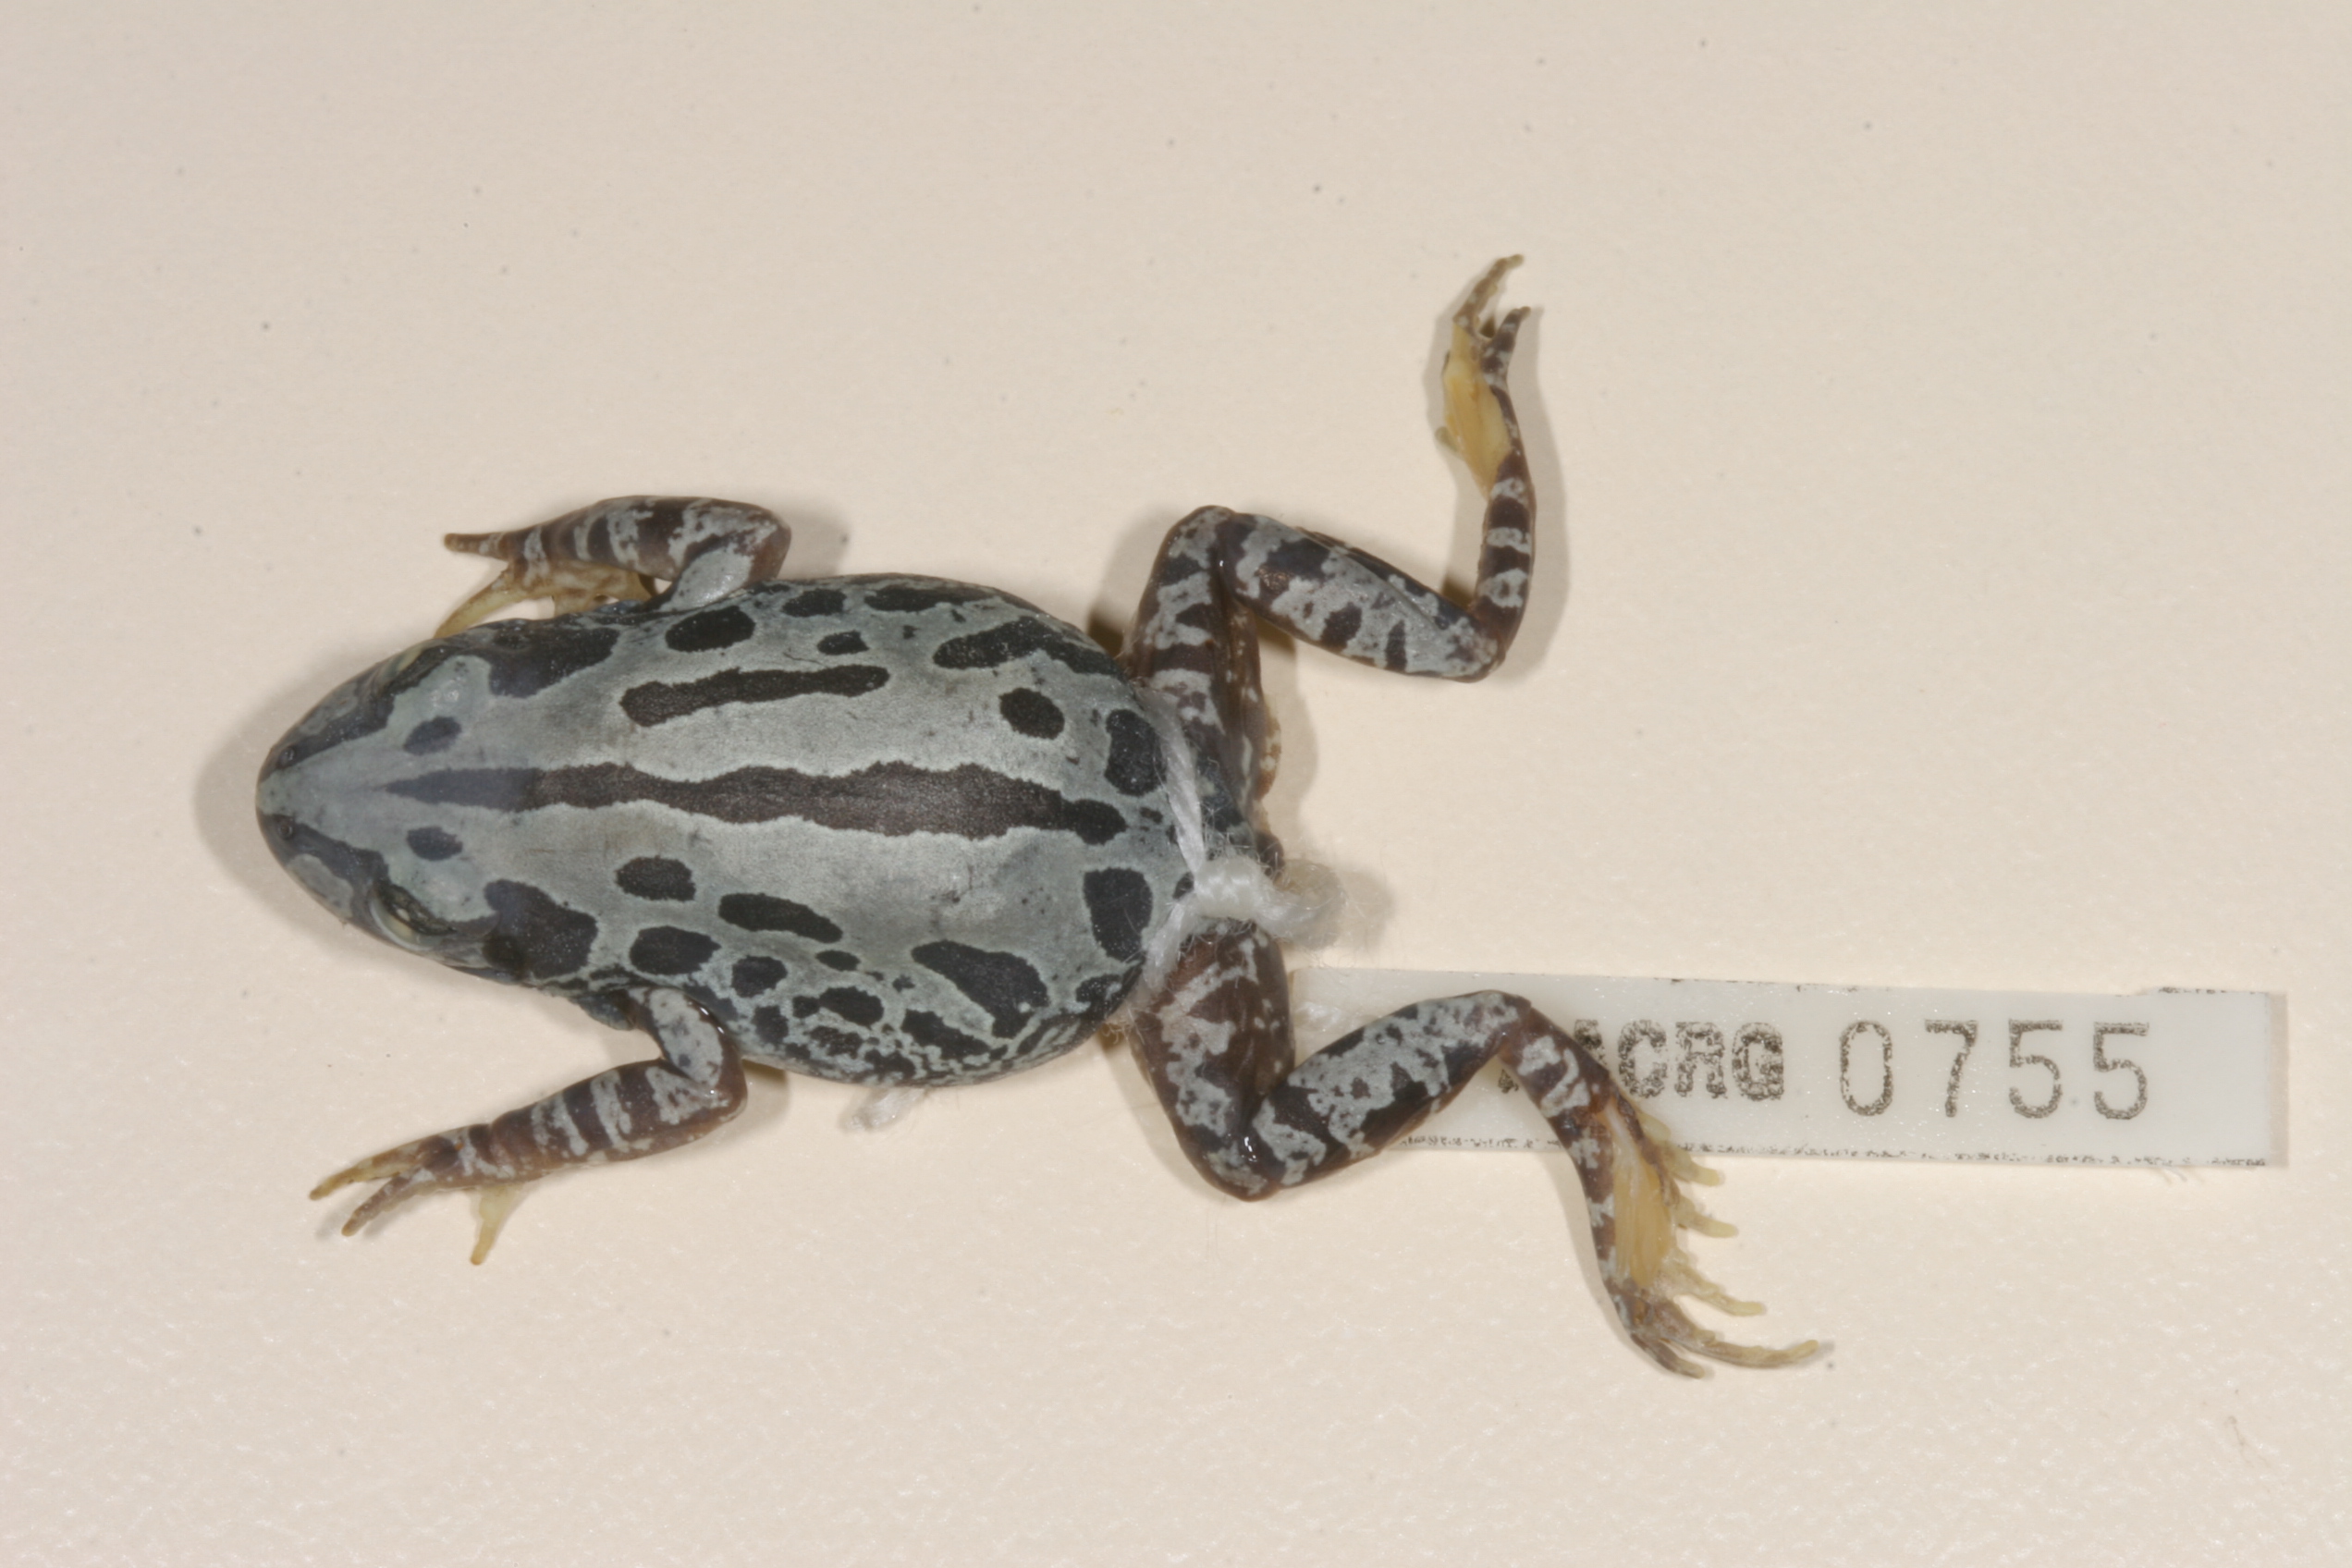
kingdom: Animalia
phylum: Chordata
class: Amphibia
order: Anura
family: Hyperoliidae
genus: Kassina
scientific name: Kassina senegalensis
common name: Senegal land frog
